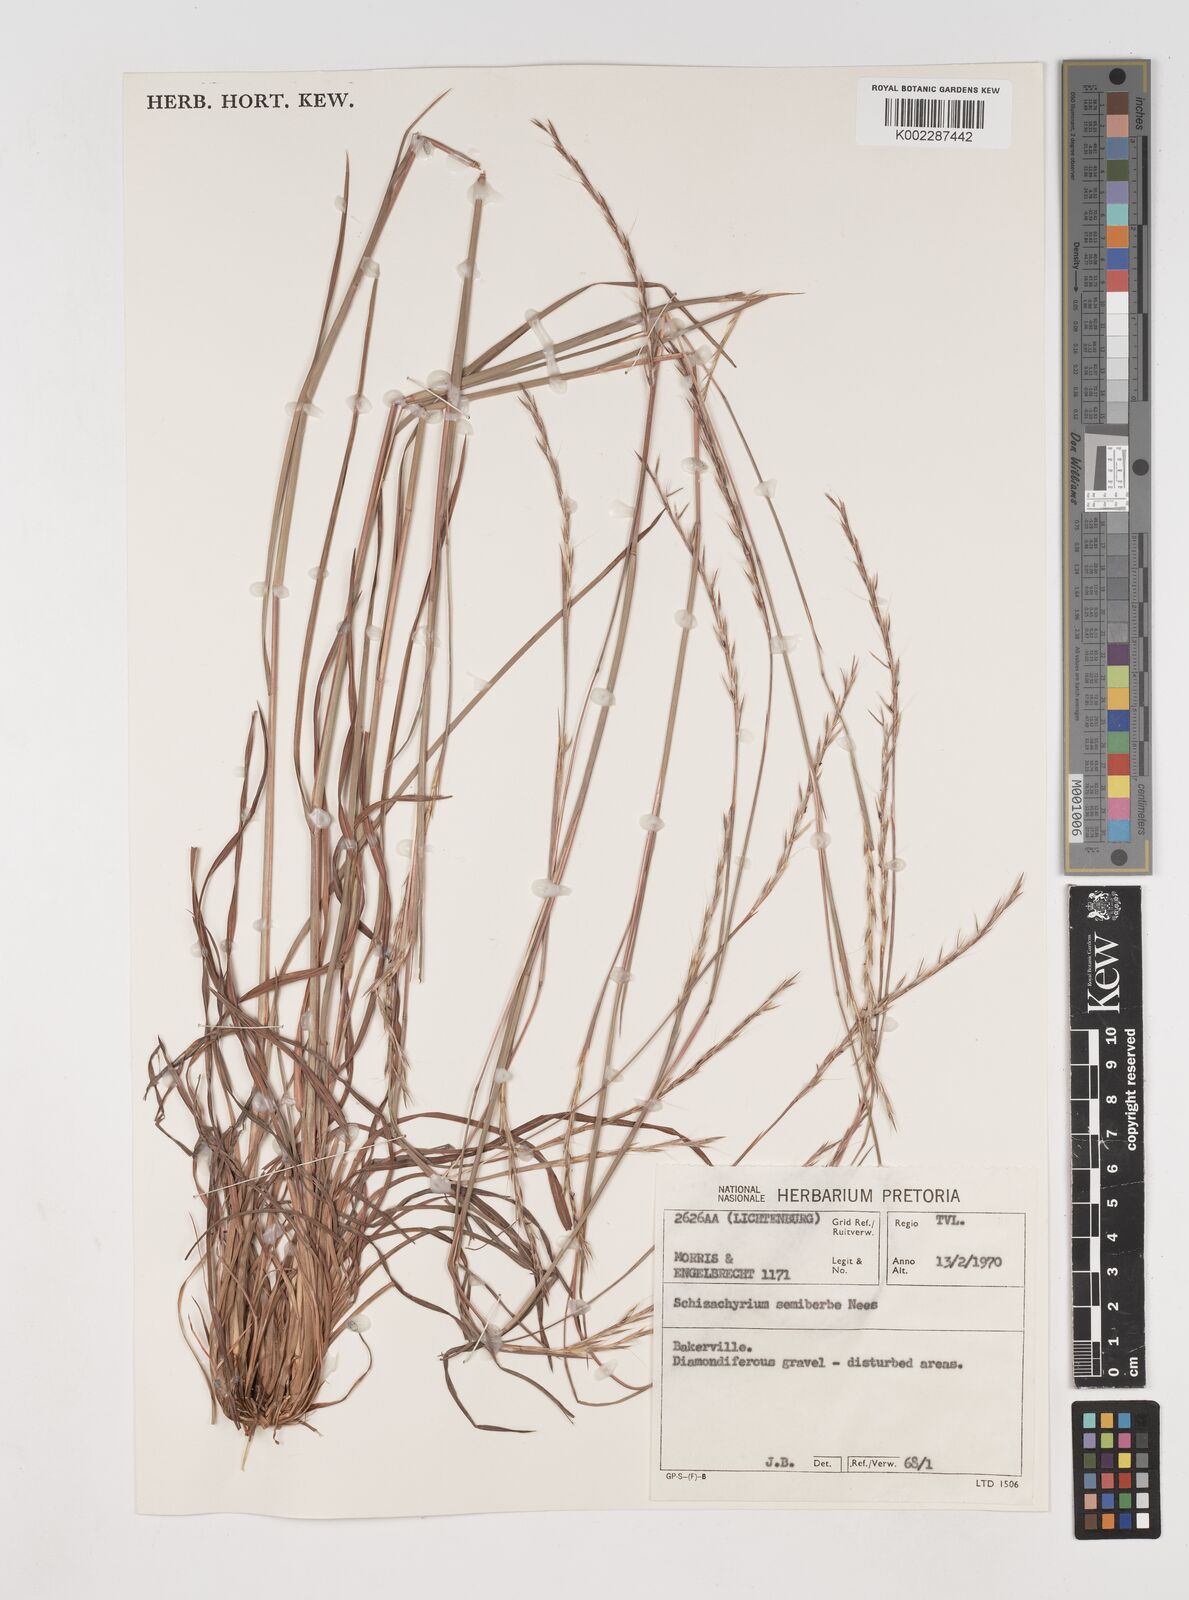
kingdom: Plantae
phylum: Tracheophyta
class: Liliopsida
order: Poales
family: Poaceae
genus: Schizachyrium
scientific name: Schizachyrium sanguineum
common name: Crimson bluestem
